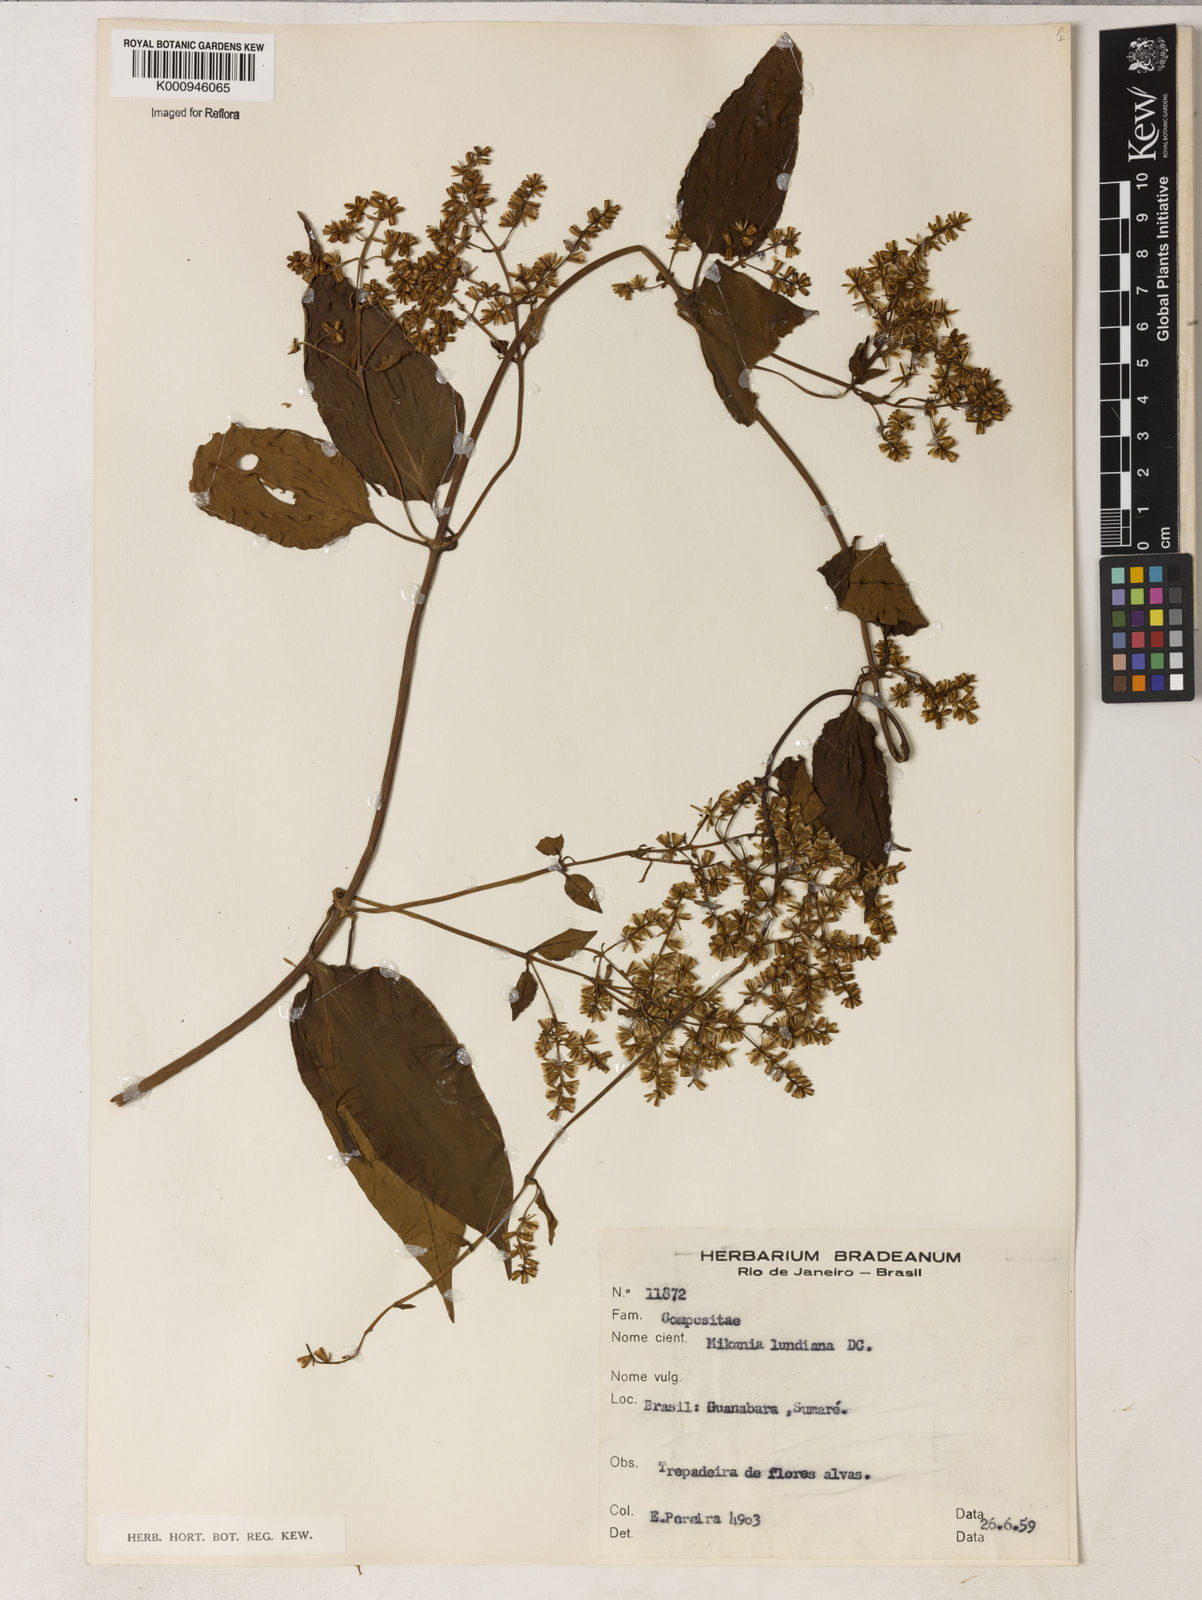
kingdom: Plantae
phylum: Tracheophyta
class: Magnoliopsida
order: Asterales
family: Asteraceae
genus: Mikania
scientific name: Mikania lundiana
